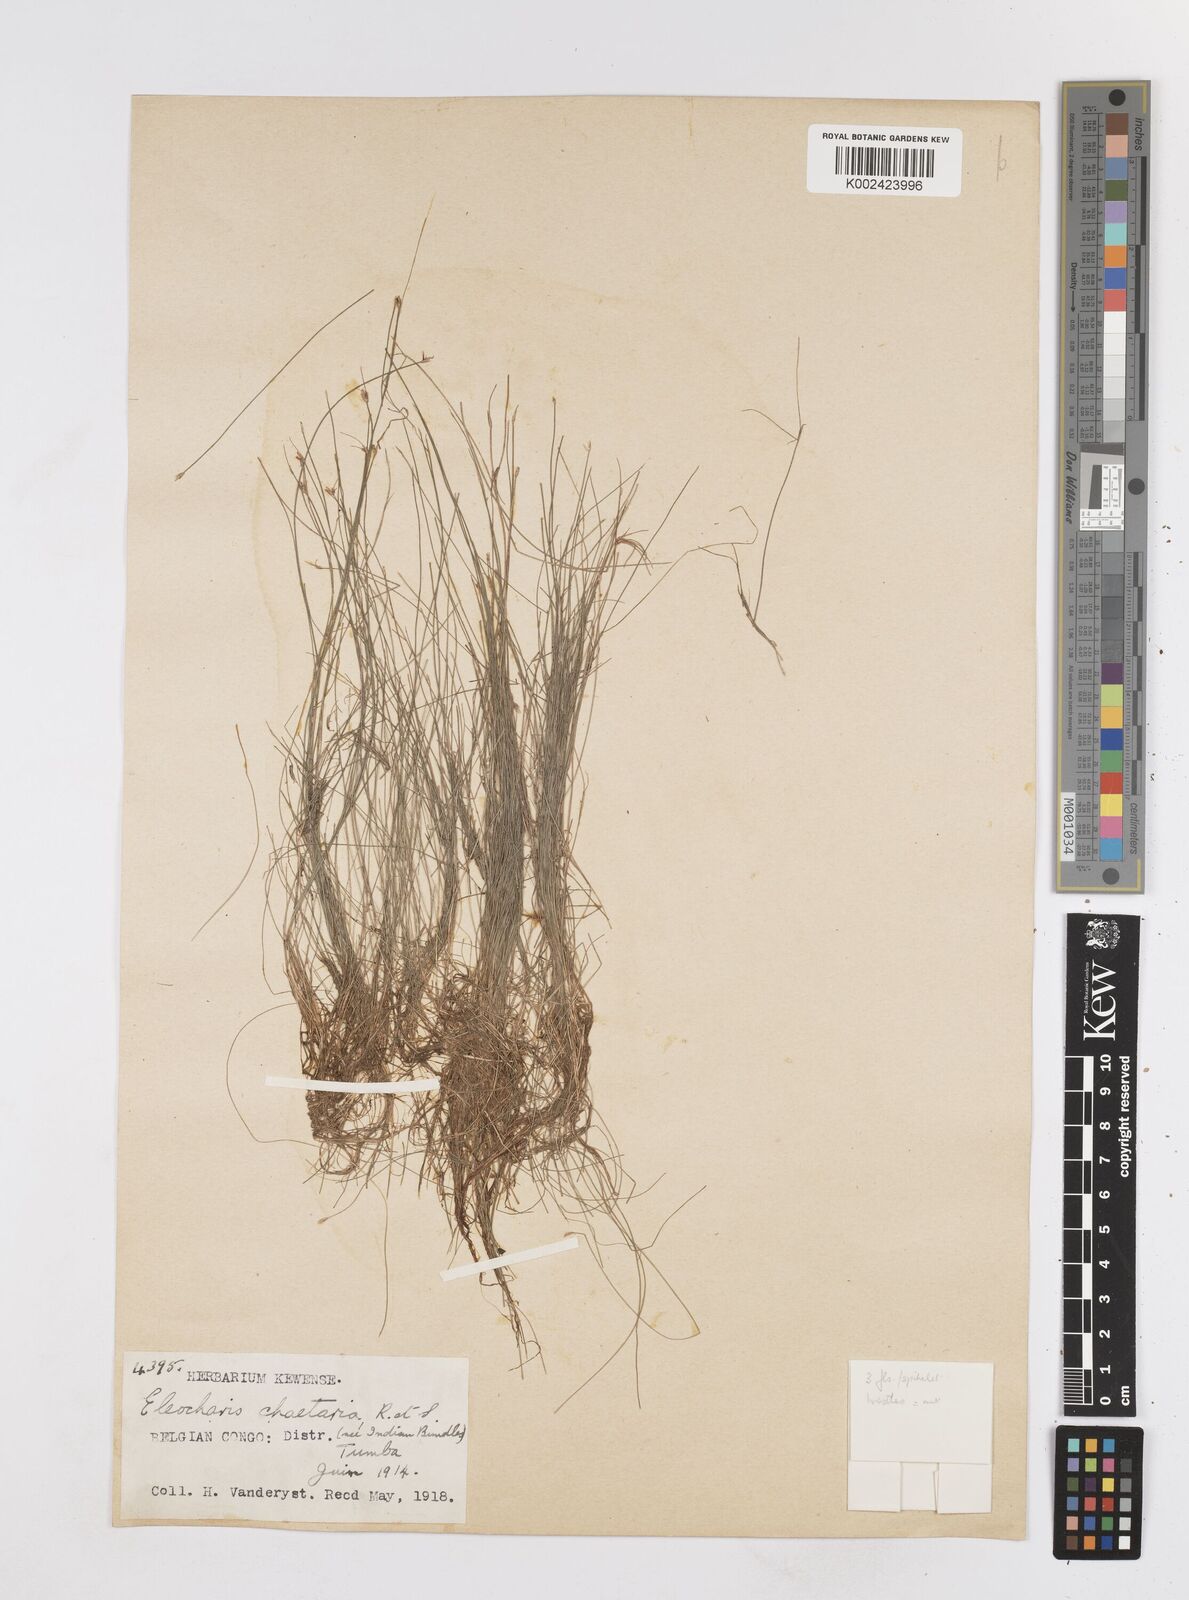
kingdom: Plantae
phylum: Tracheophyta
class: Liliopsida
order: Poales
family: Cyperaceae
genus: Eleocharis
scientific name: Eleocharis
